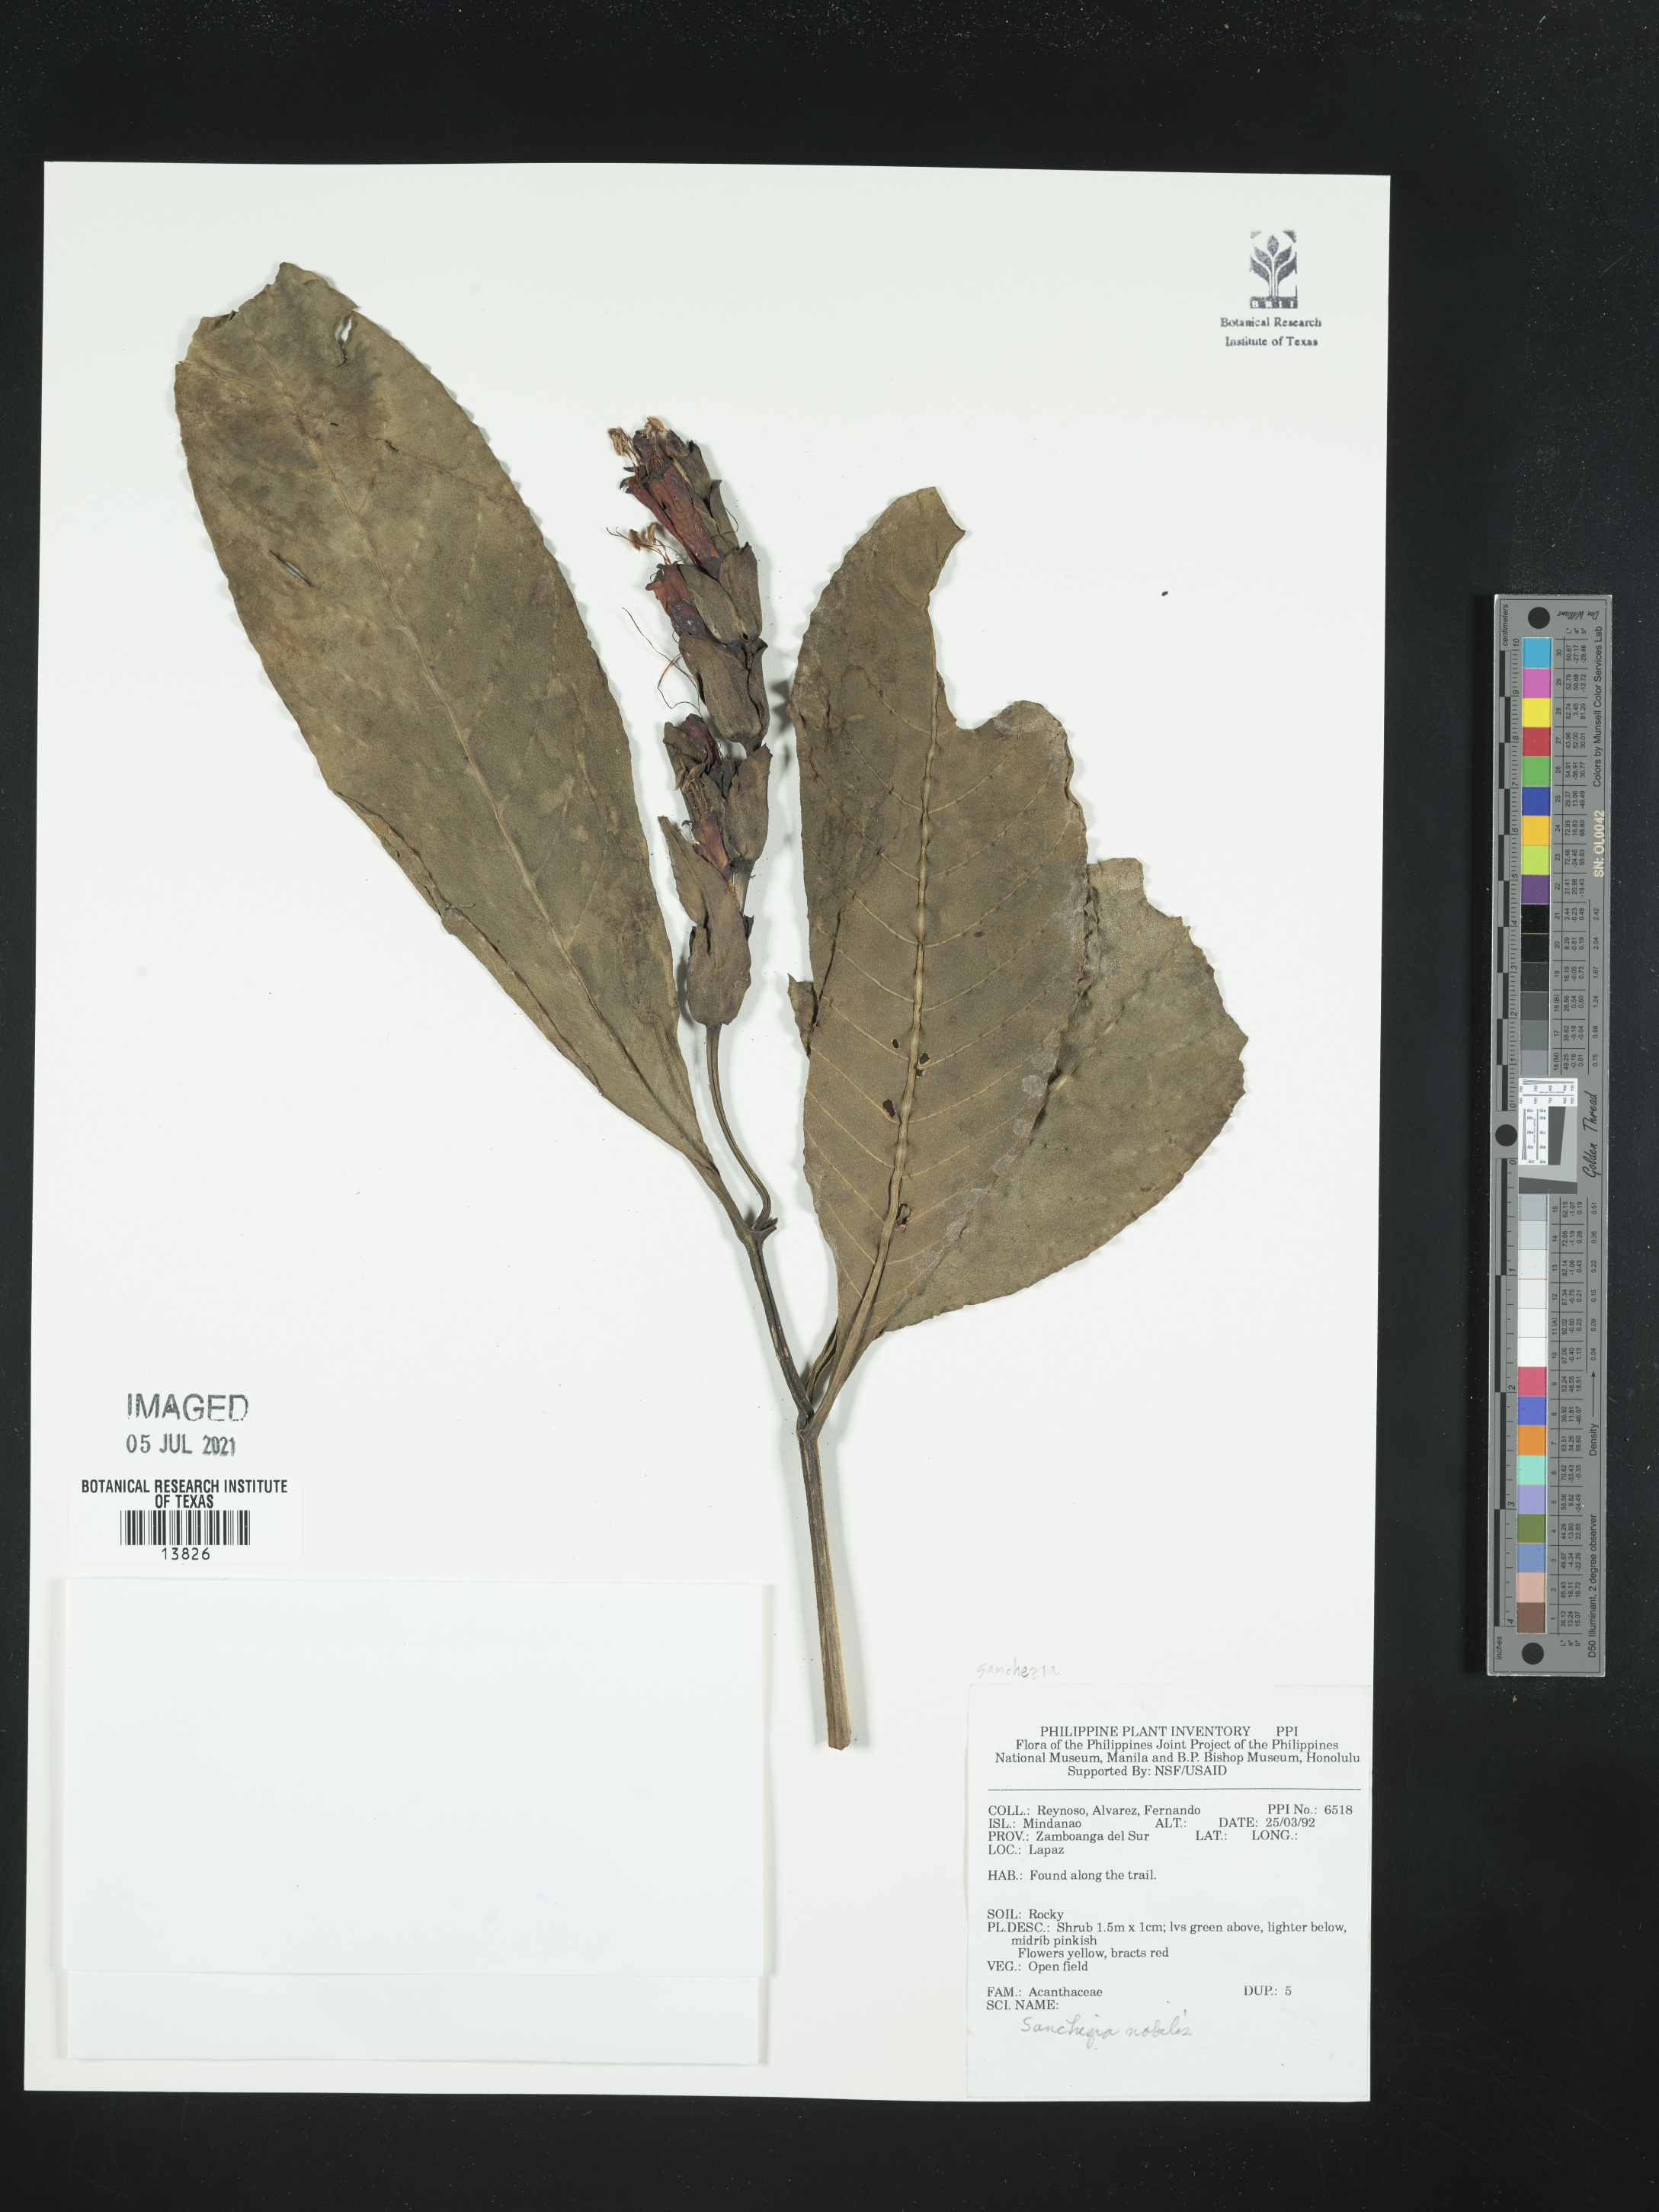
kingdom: Plantae
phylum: Tracheophyta
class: Magnoliopsida
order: Lamiales
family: Acanthaceae
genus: Sanchezia
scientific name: Sanchezia oblonga
